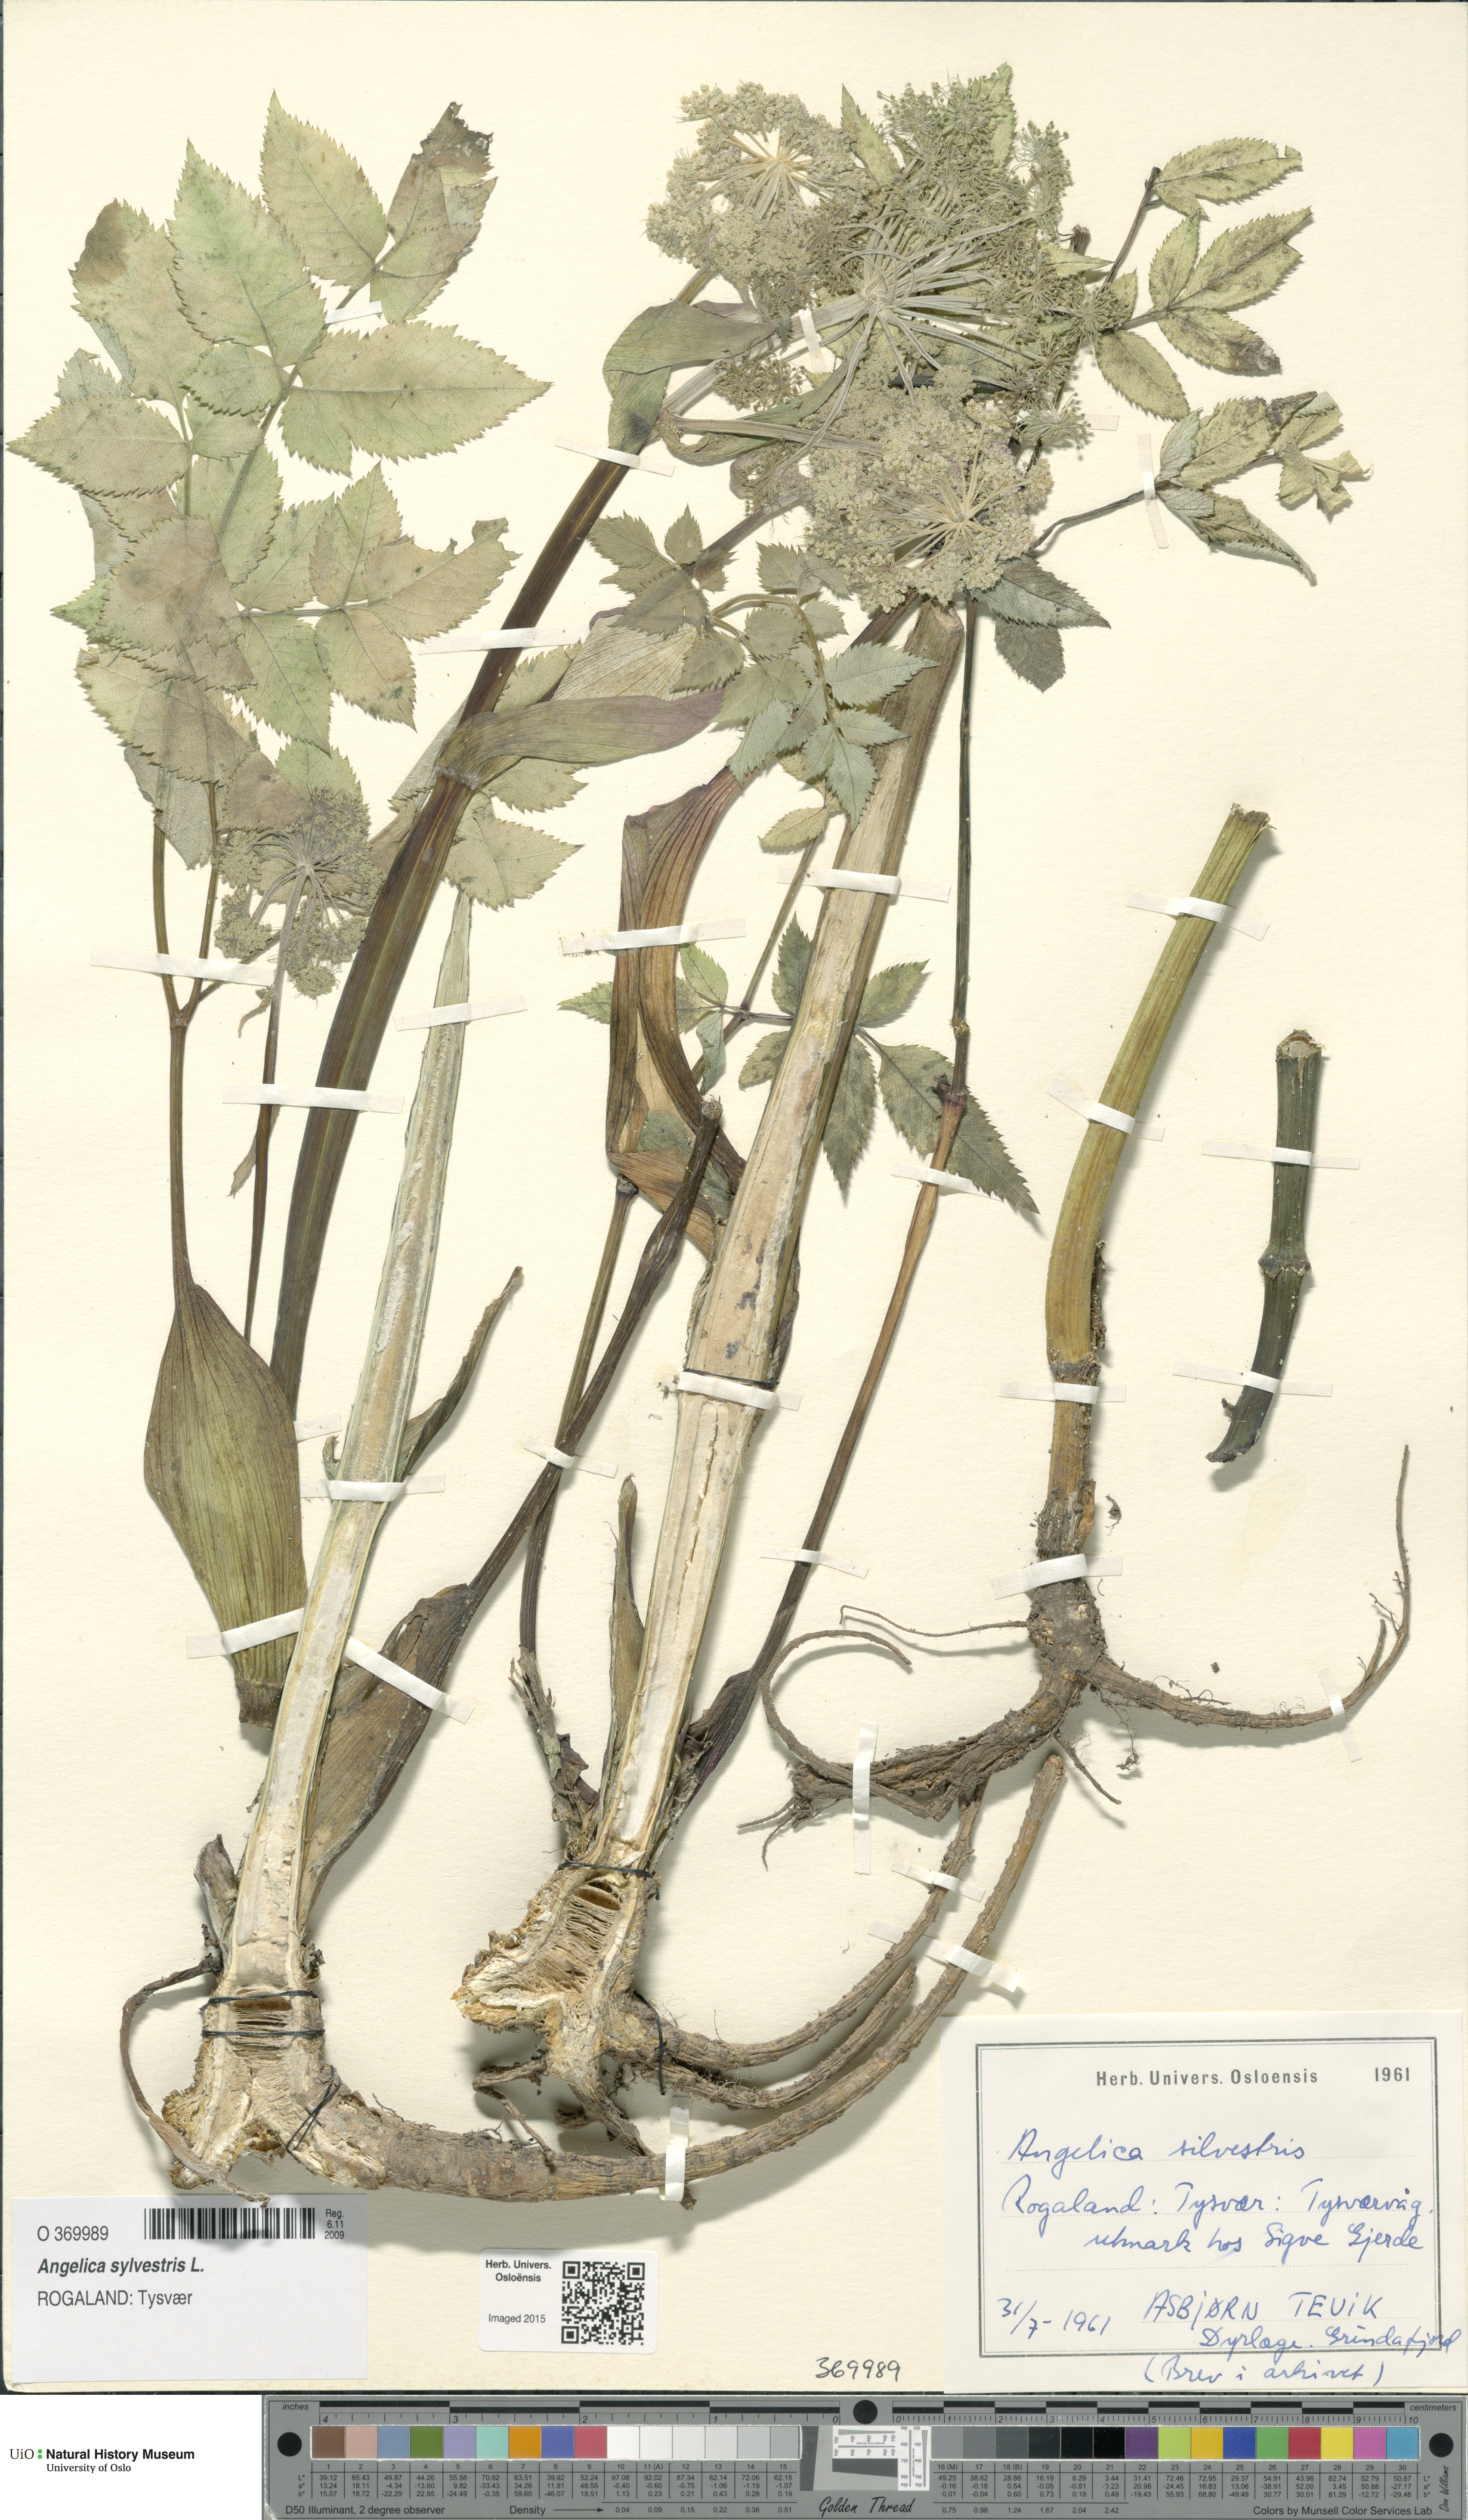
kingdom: Plantae
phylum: Tracheophyta
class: Magnoliopsida
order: Apiales
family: Apiaceae
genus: Angelica
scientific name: Angelica sylvestris
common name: Wild angelica
